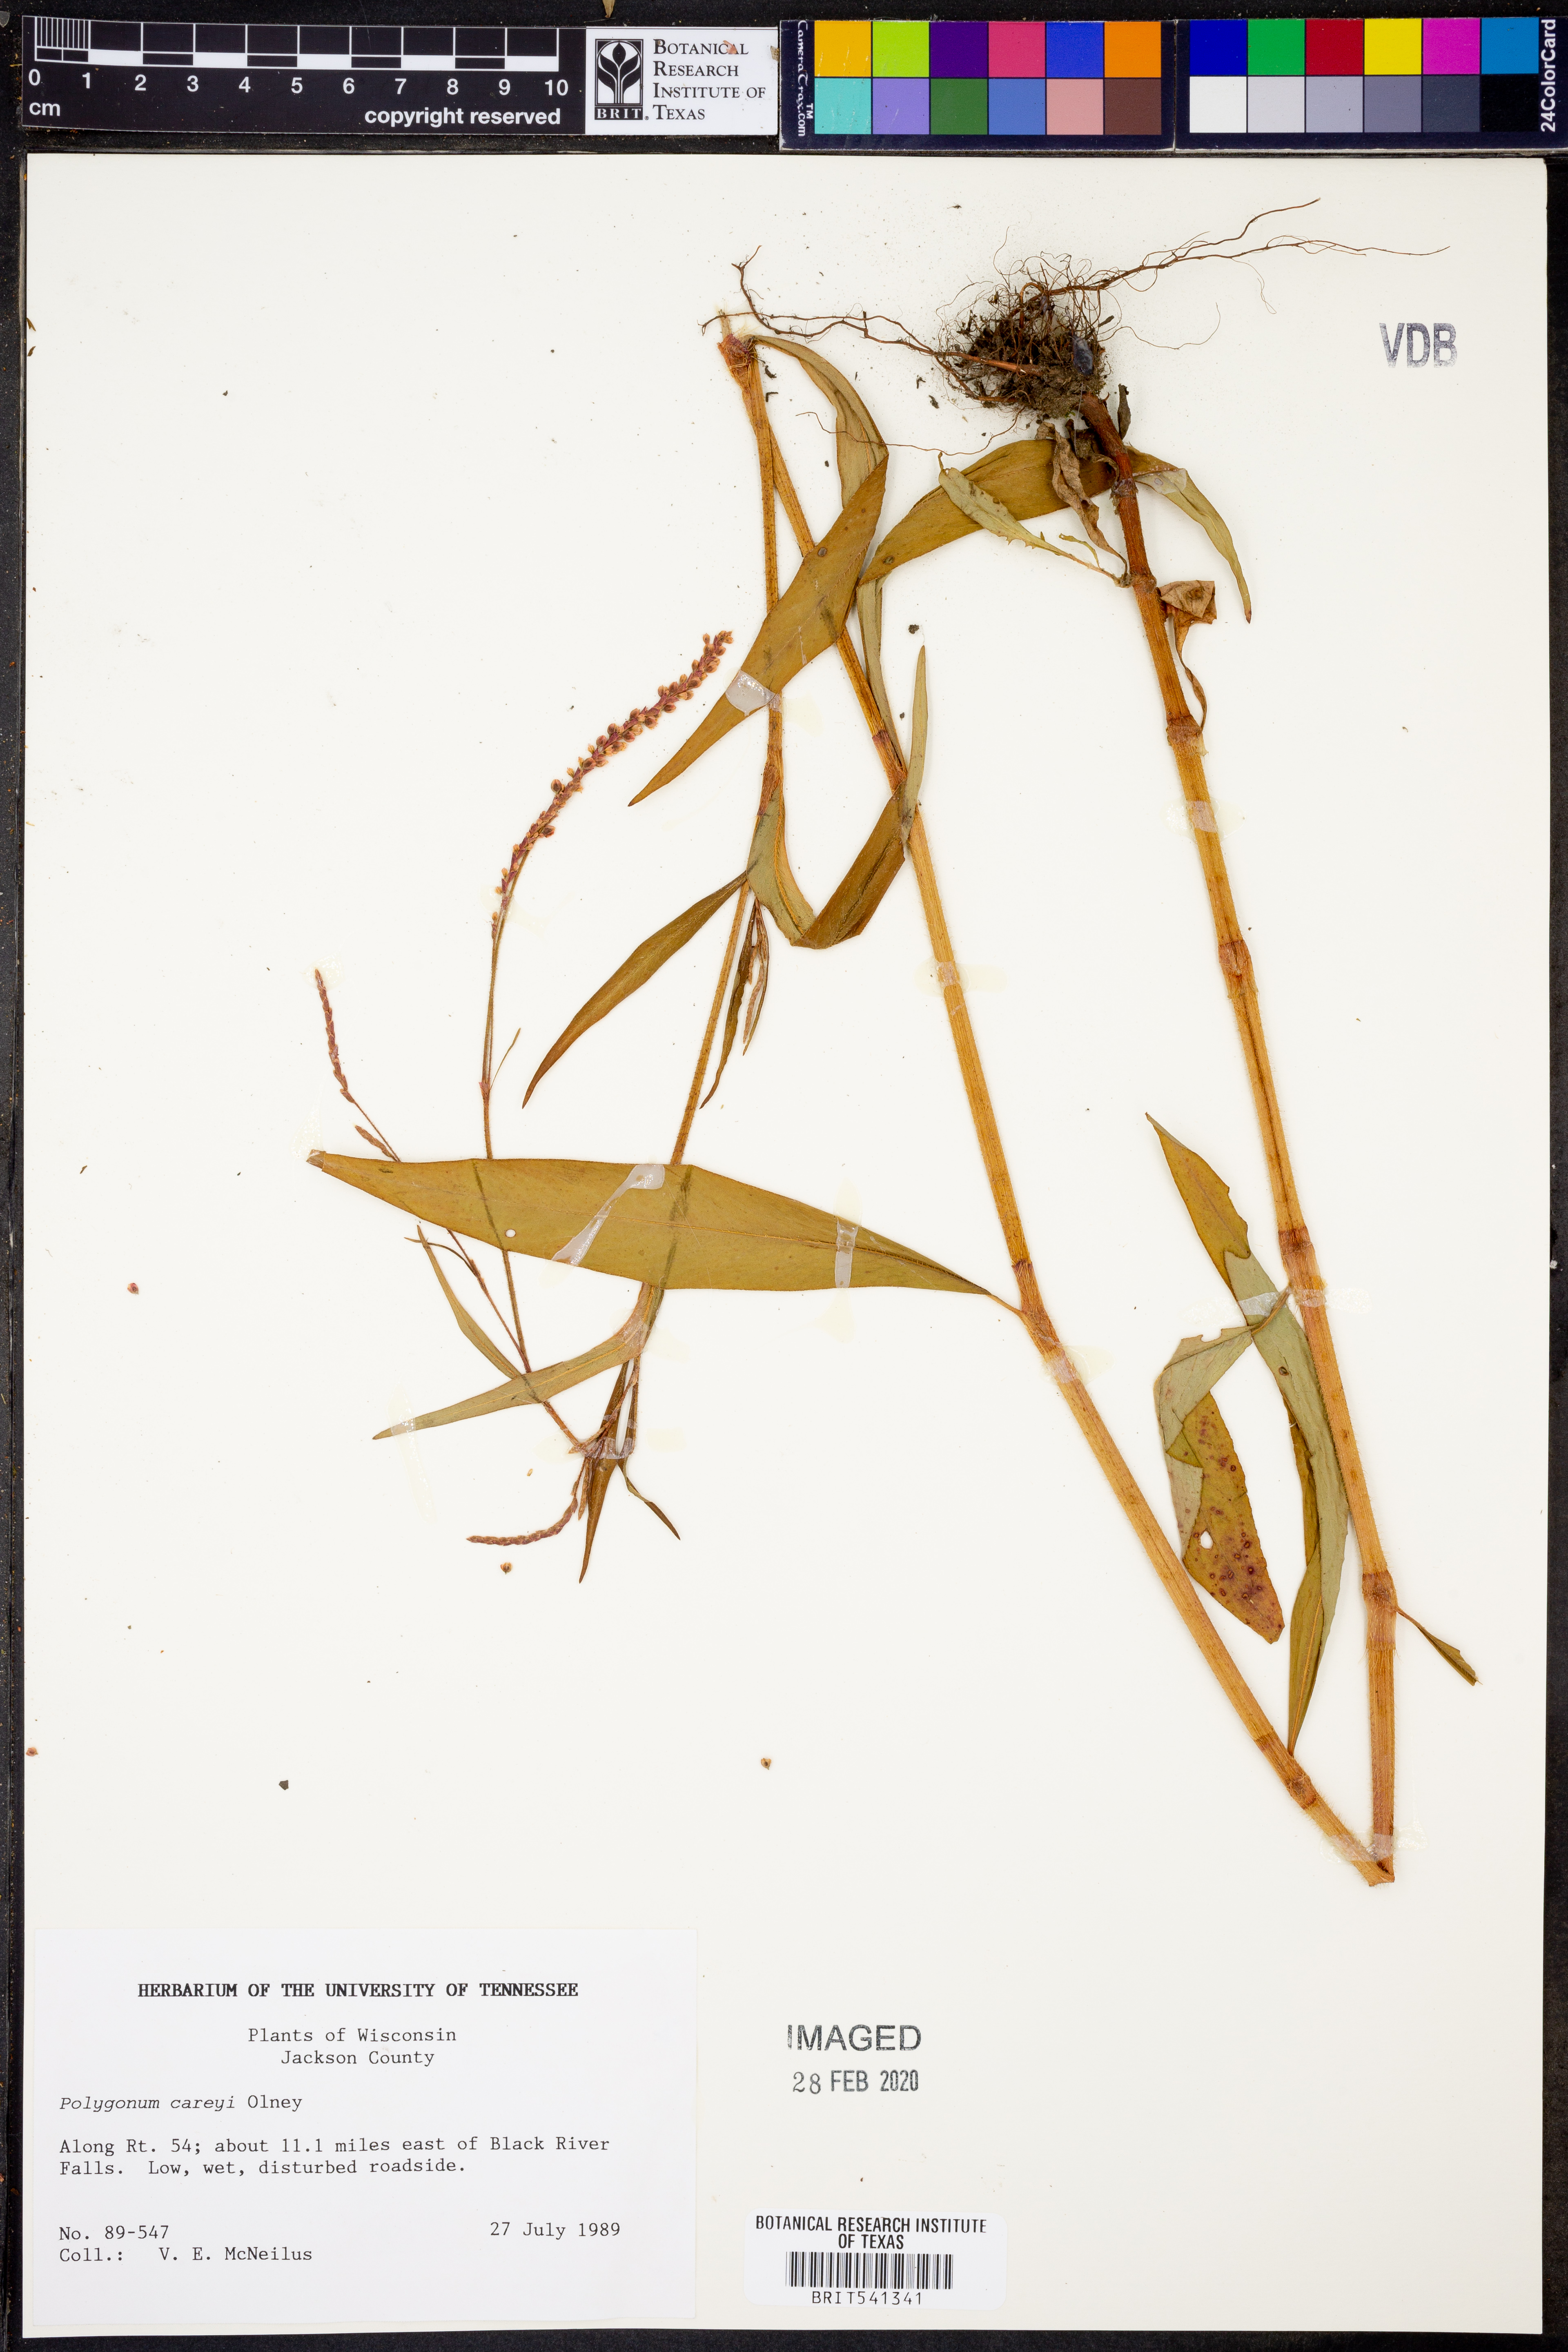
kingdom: Plantae
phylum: Tracheophyta
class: Magnoliopsida
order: Caryophyllales
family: Polygonaceae
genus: Persicaria
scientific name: Persicaria careyi
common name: Carey's smartweed
